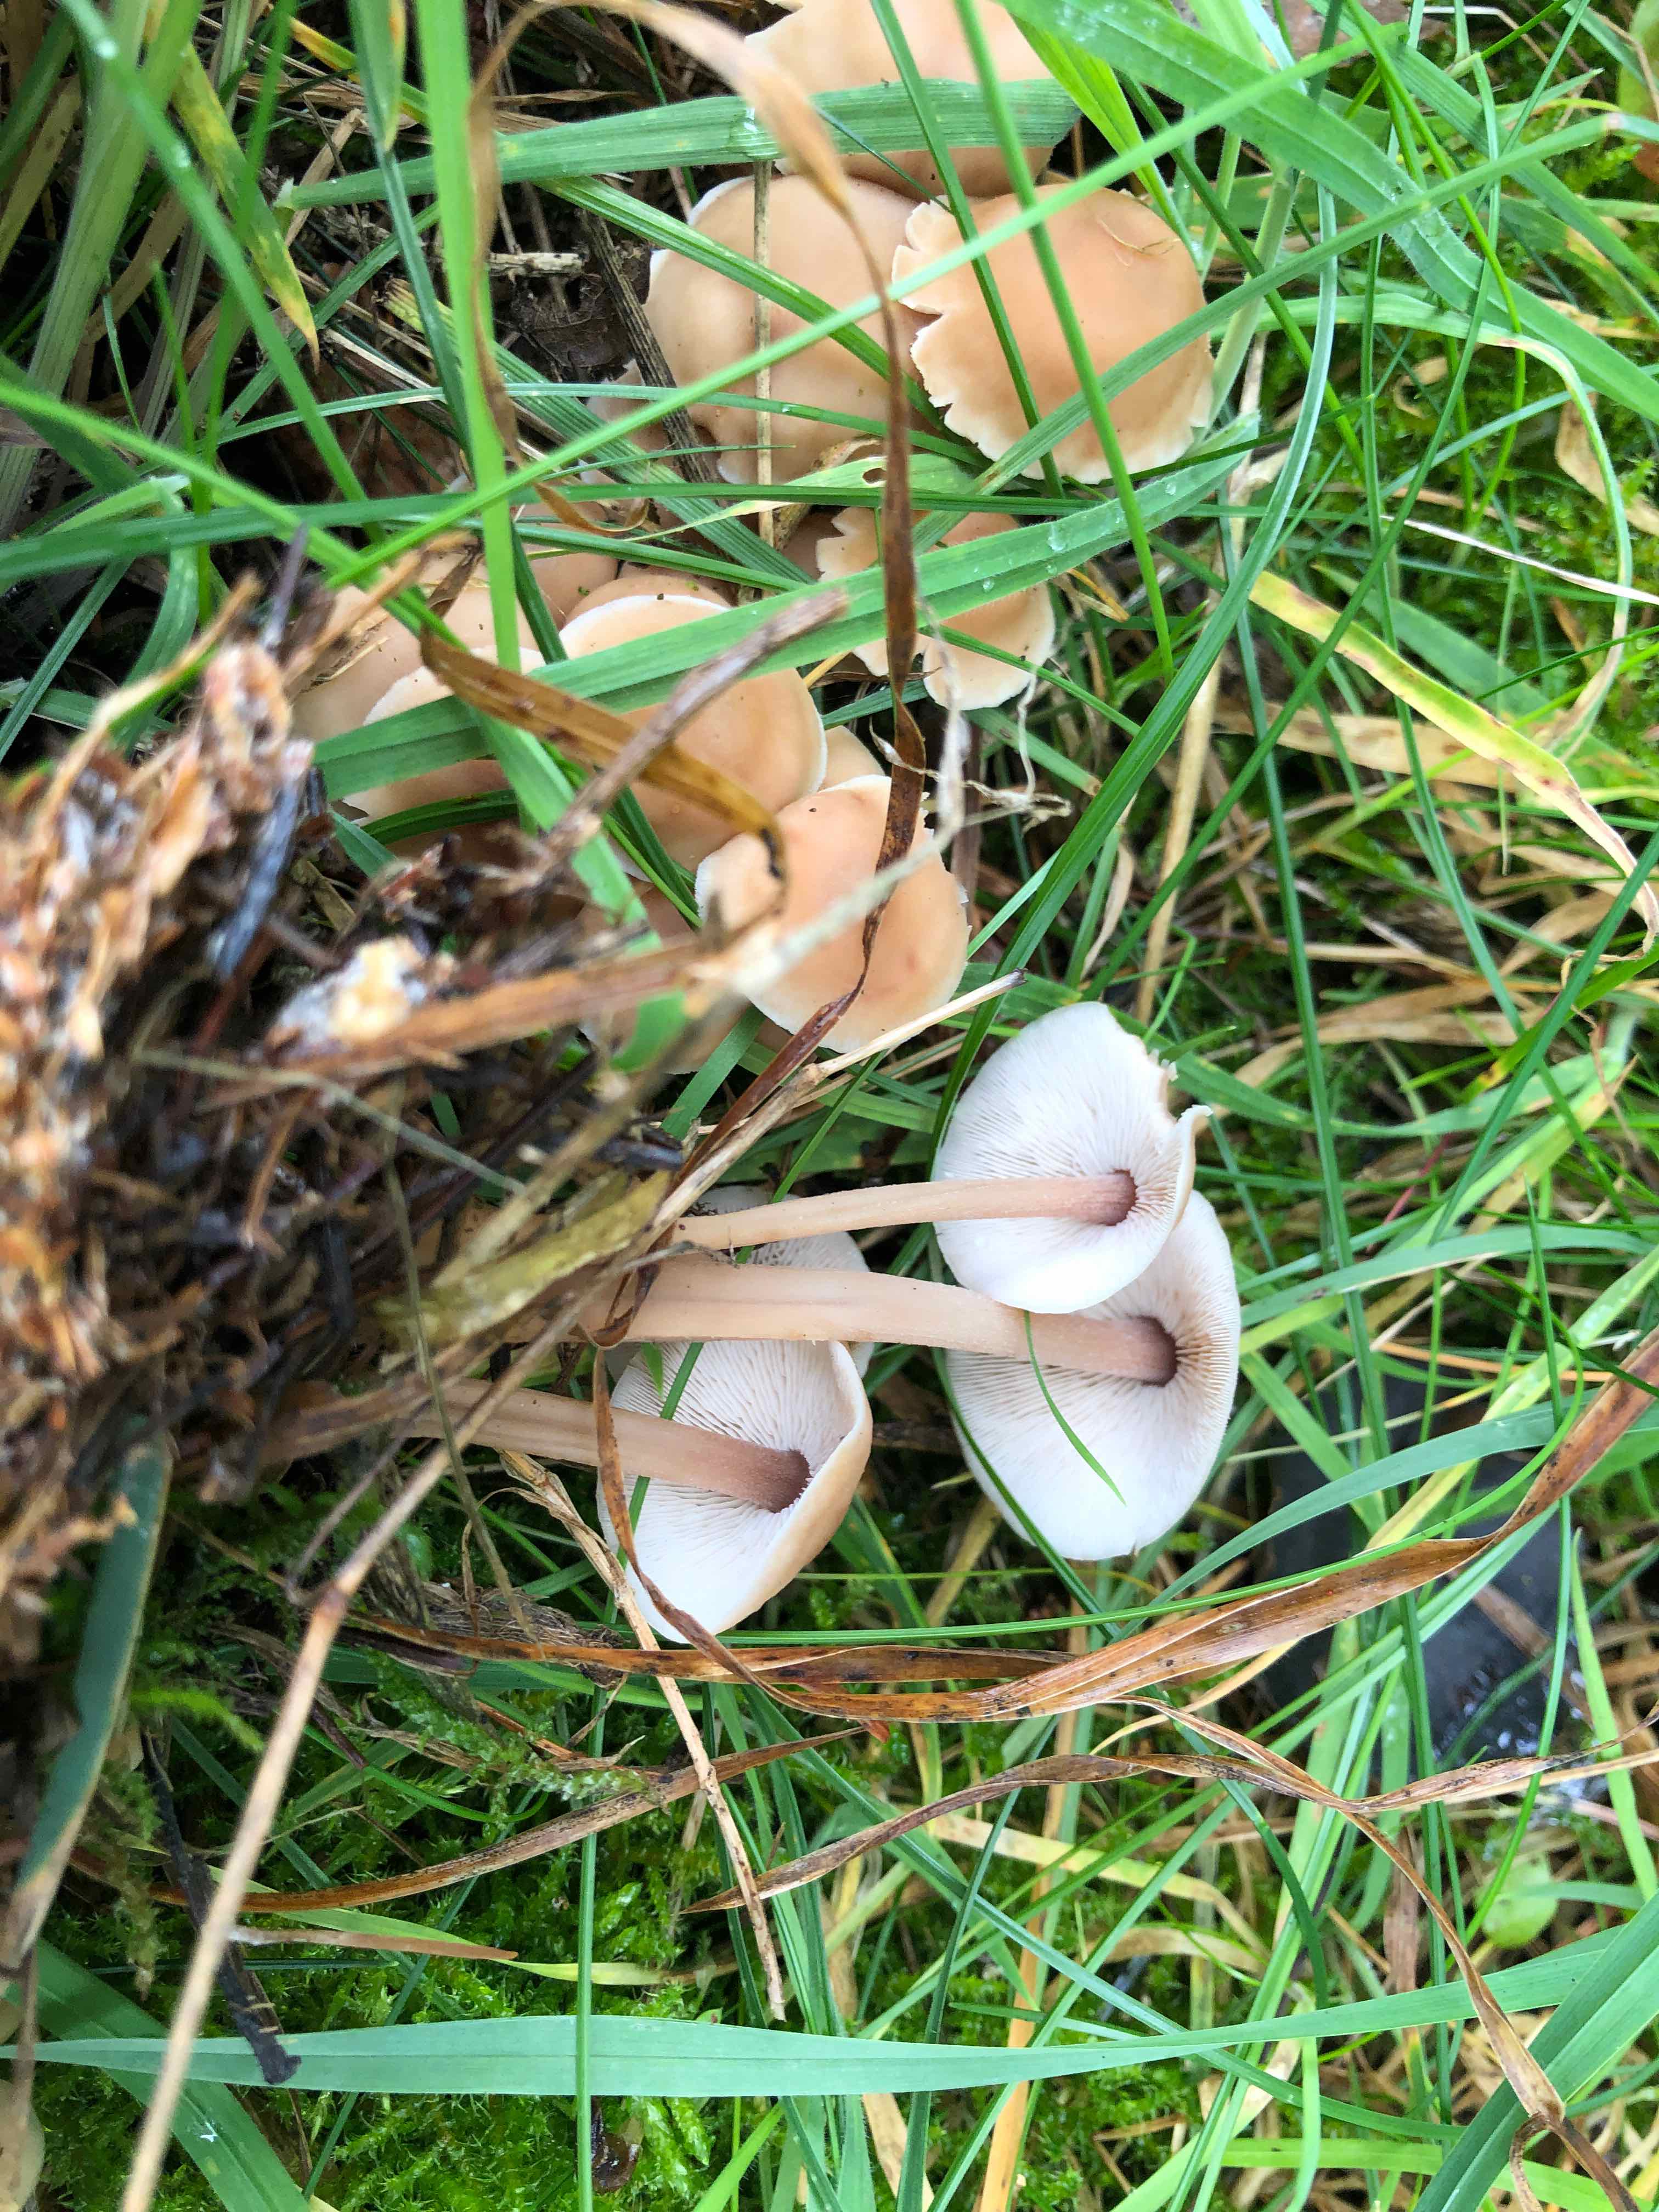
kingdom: Fungi
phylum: Basidiomycota
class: Agaricomycetes
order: Agaricales
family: Omphalotaceae
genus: Collybiopsis
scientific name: Collybiopsis confluens
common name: knippe-fladhat
